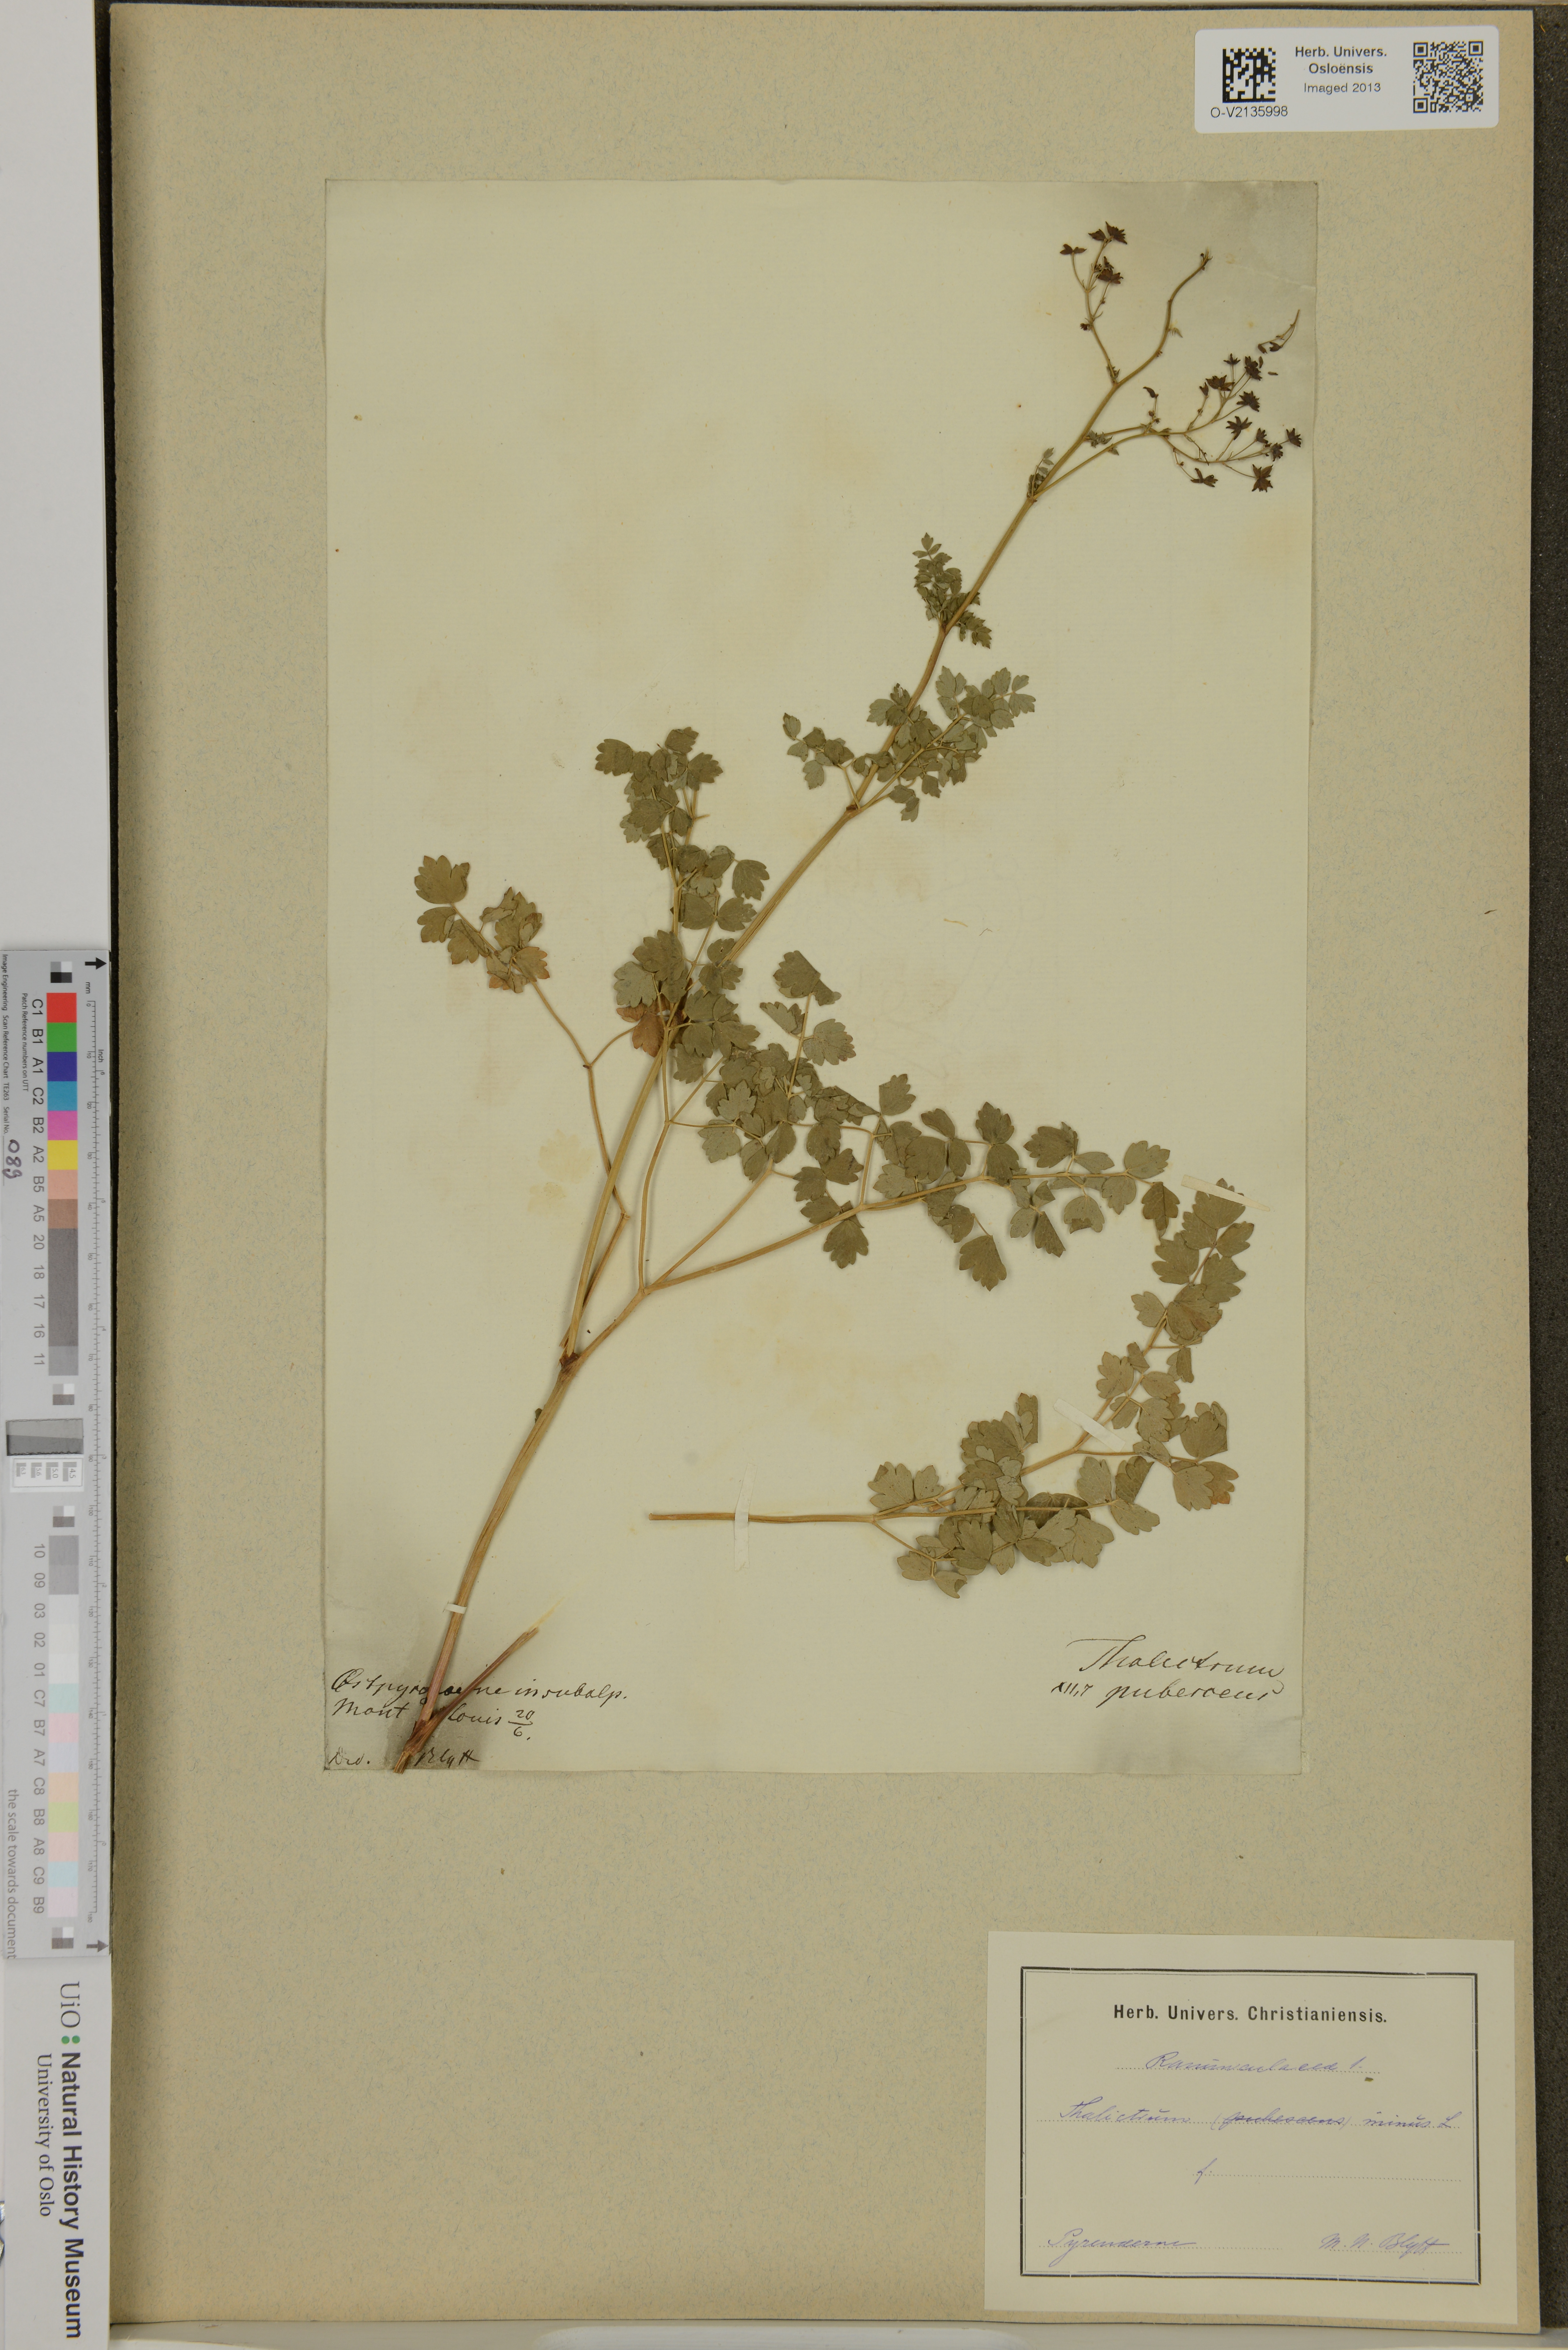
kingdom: Plantae
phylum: Tracheophyta
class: Magnoliopsida
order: Ranunculales
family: Ranunculaceae
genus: Thalictrum
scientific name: Thalictrum minus
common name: Lesser meadow-rue
